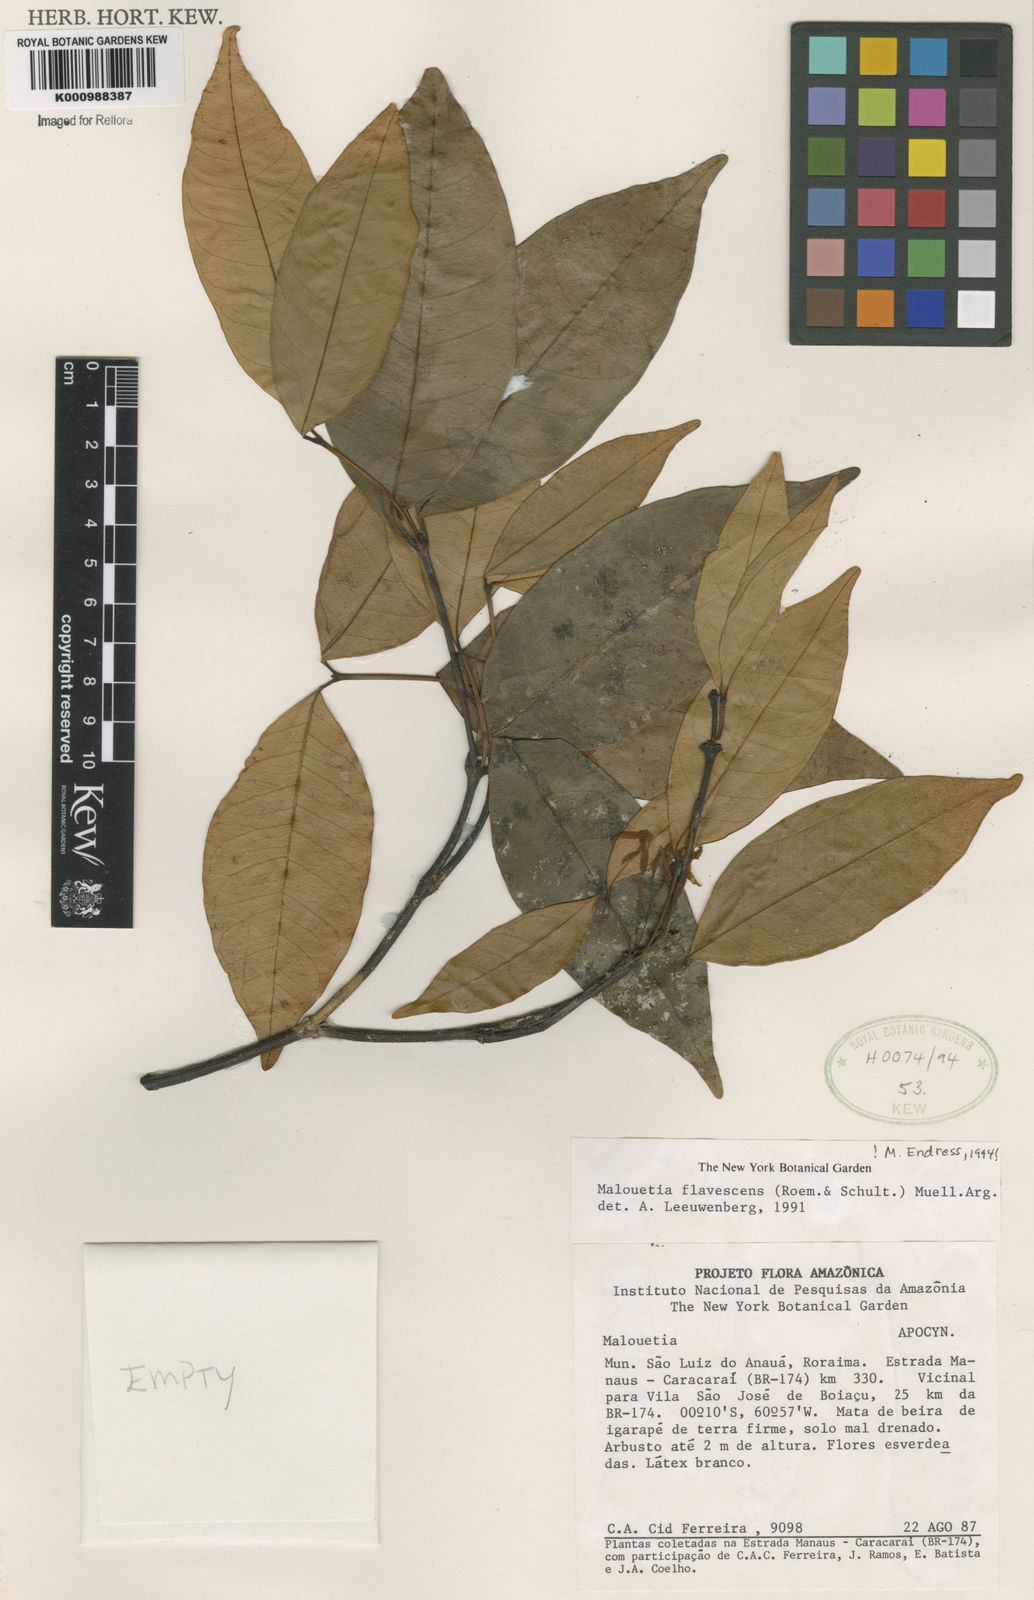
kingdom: Plantae
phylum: Tracheophyta
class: Magnoliopsida
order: Gentianales
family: Apocynaceae
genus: Malouetia
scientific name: Malouetia
